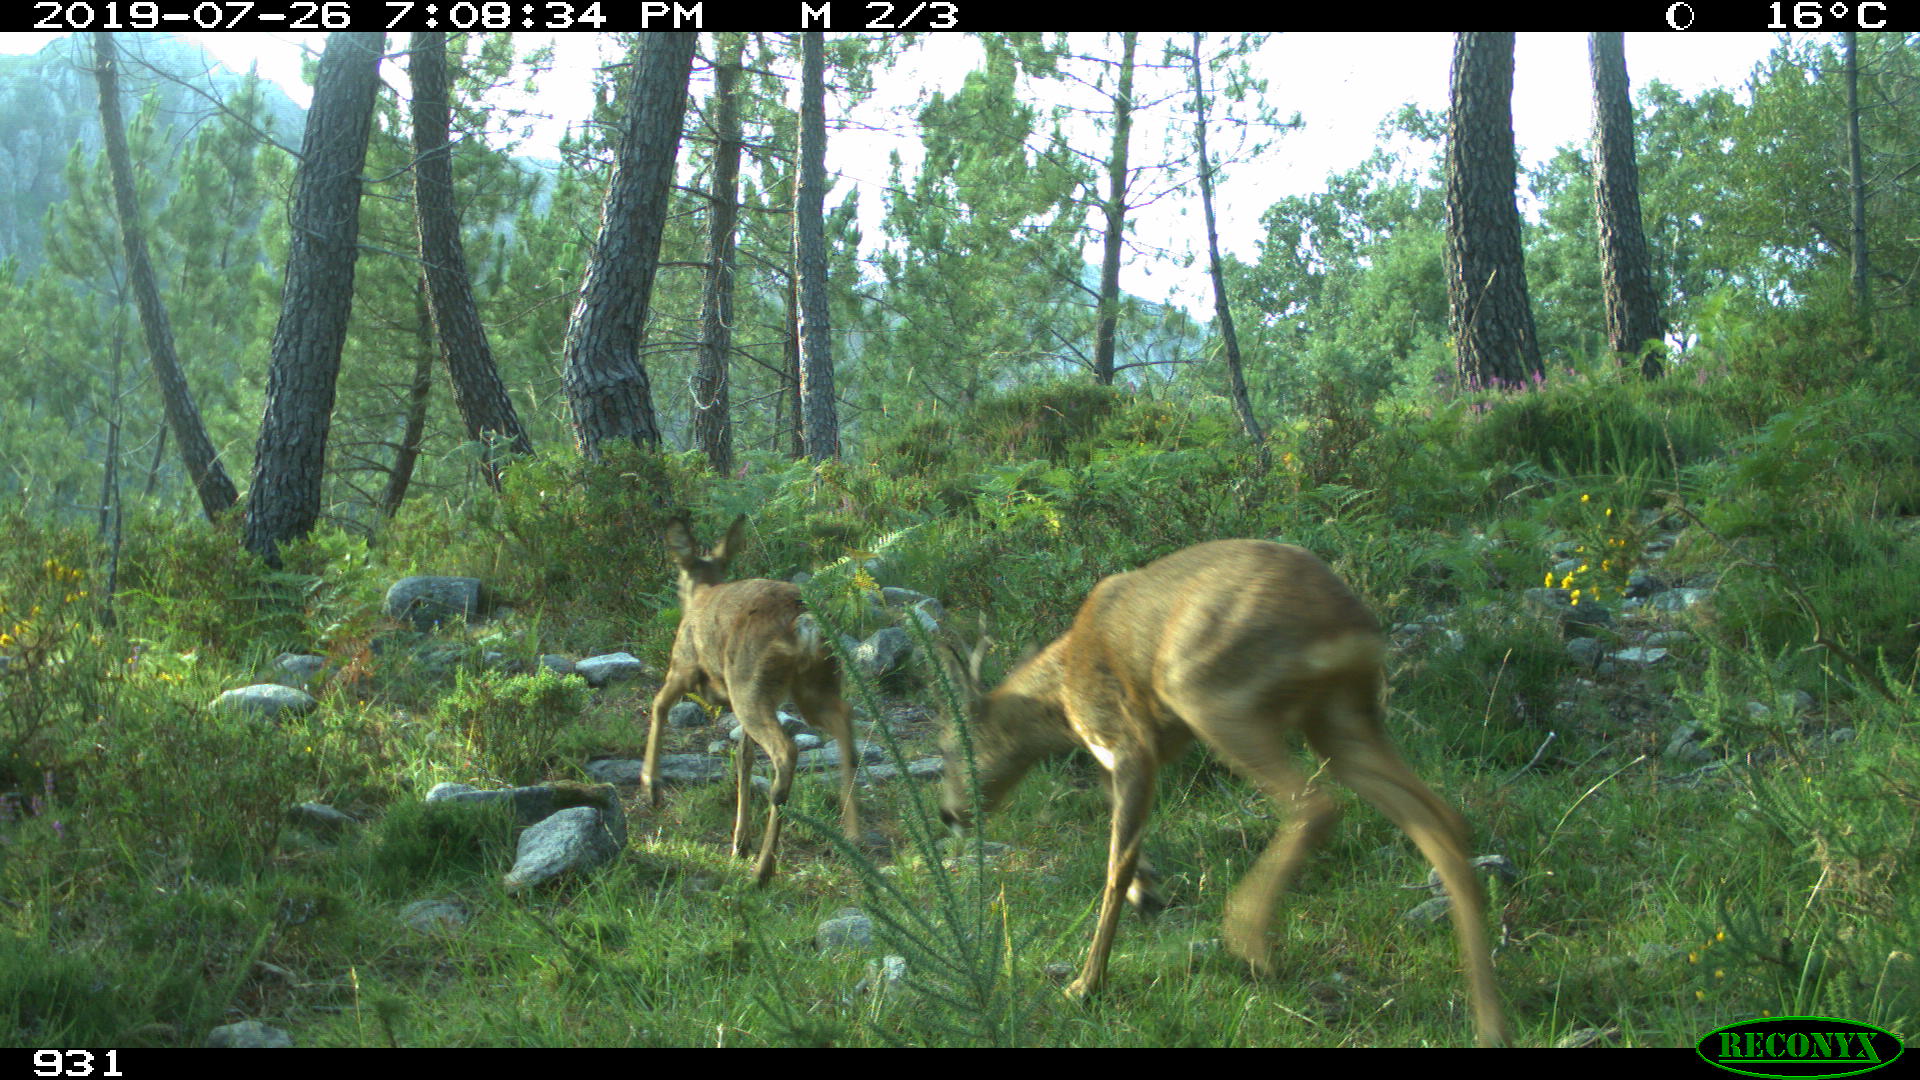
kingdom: Animalia
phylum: Chordata
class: Mammalia
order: Artiodactyla
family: Cervidae
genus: Capreolus
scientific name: Capreolus capreolus
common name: Western roe deer
